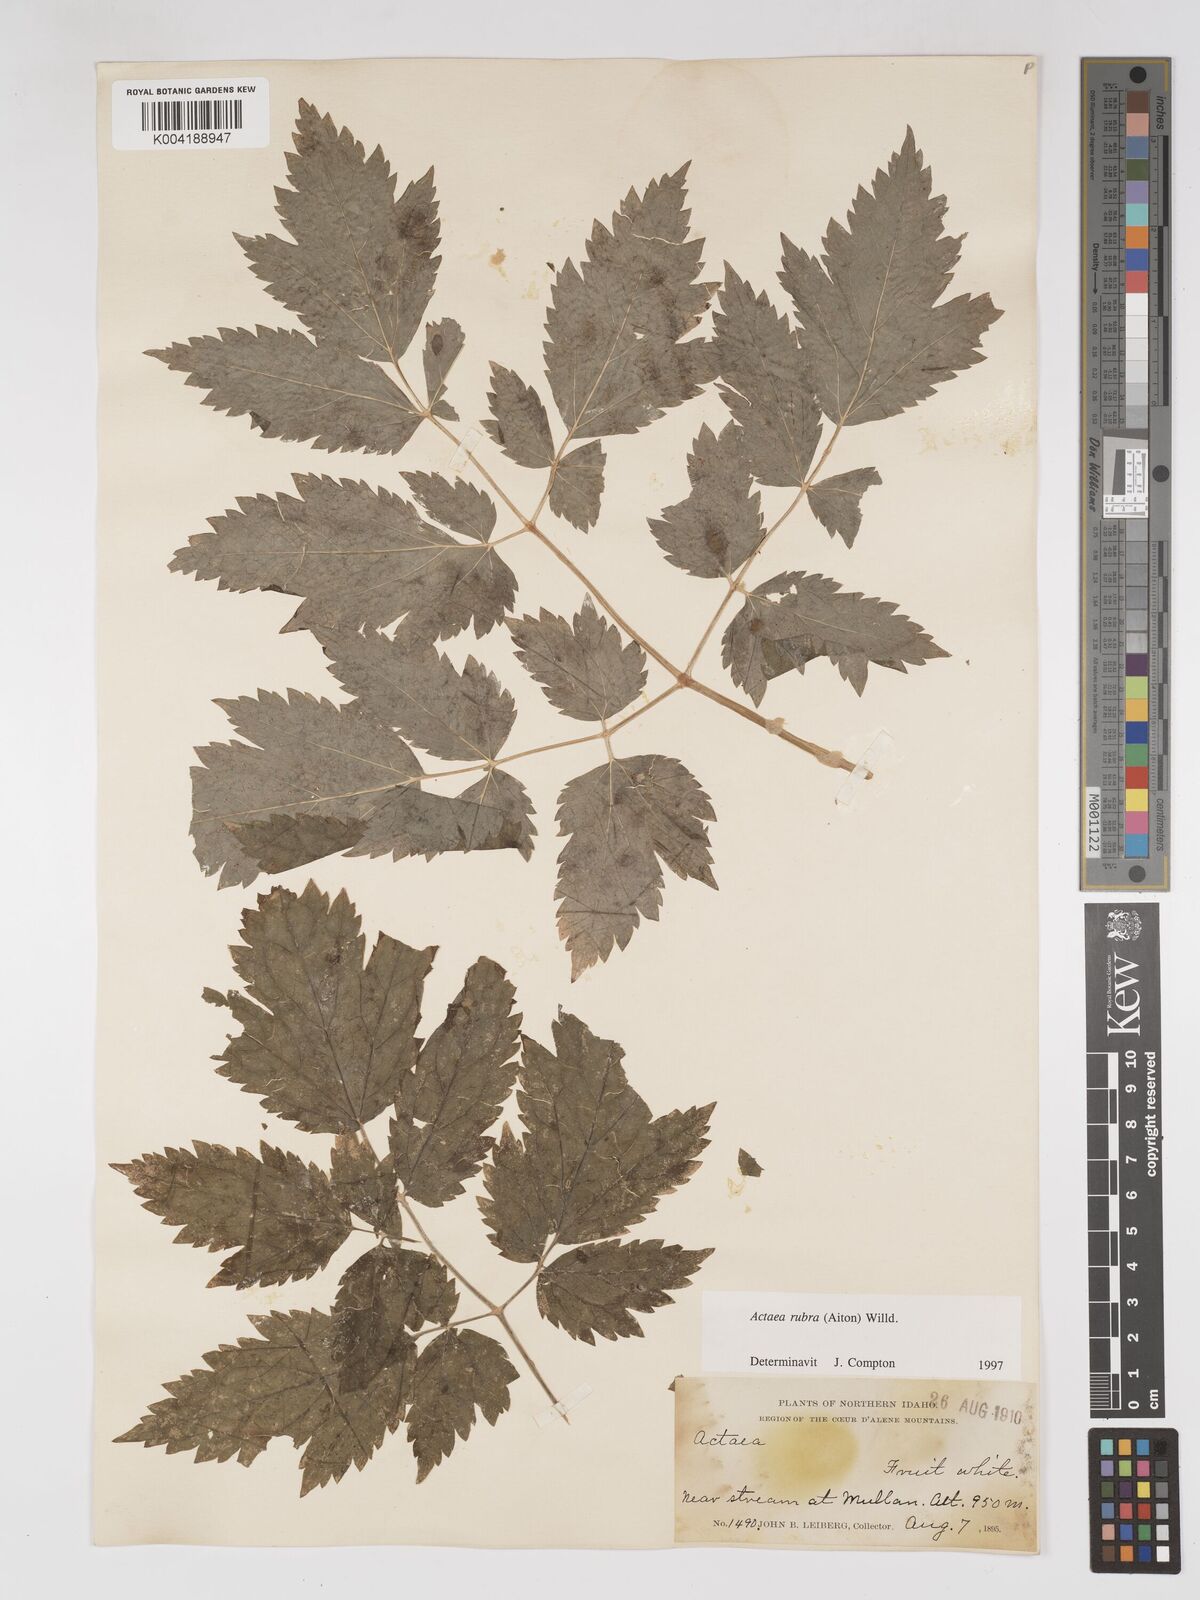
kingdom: Plantae
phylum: Tracheophyta
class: Magnoliopsida
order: Ranunculales
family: Ranunculaceae
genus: Actaea
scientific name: Actaea rubra
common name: Red baneberry
